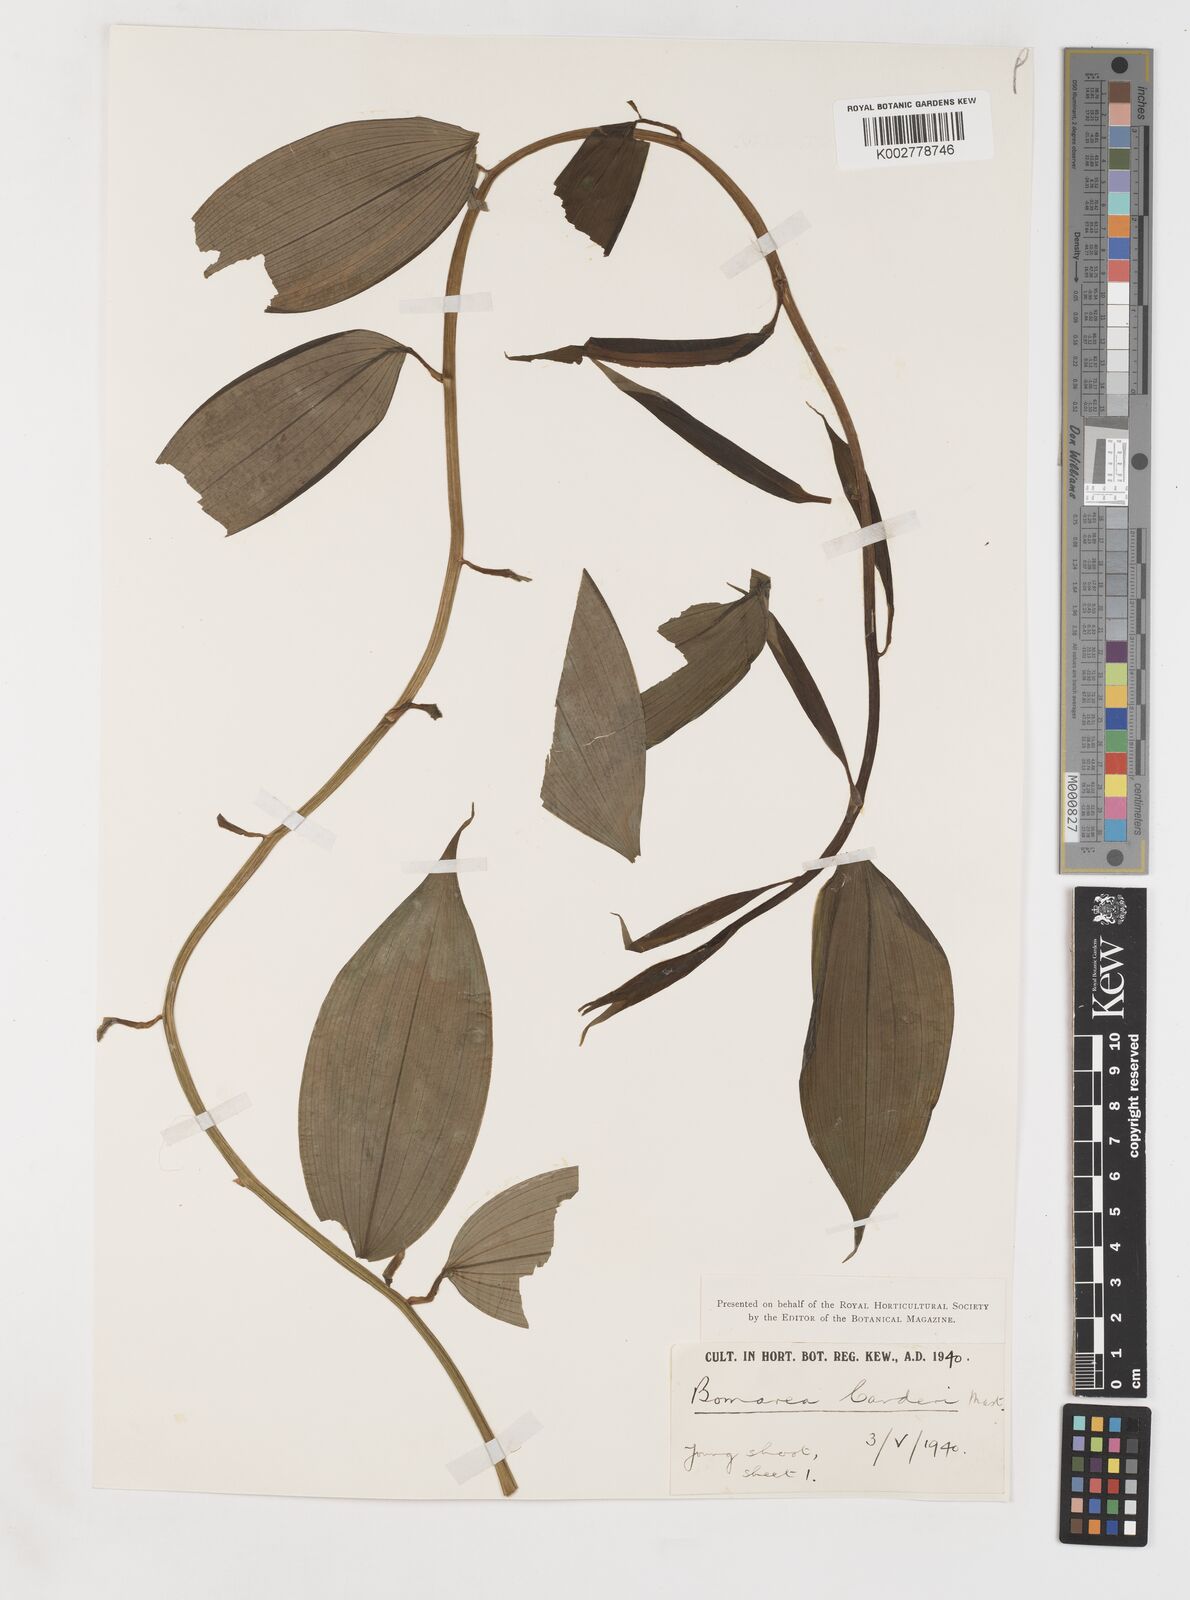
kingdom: Plantae
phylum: Tracheophyta
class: Liliopsida
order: Liliales
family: Alstroemeriaceae
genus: Bomarea
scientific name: Bomarea carderi
